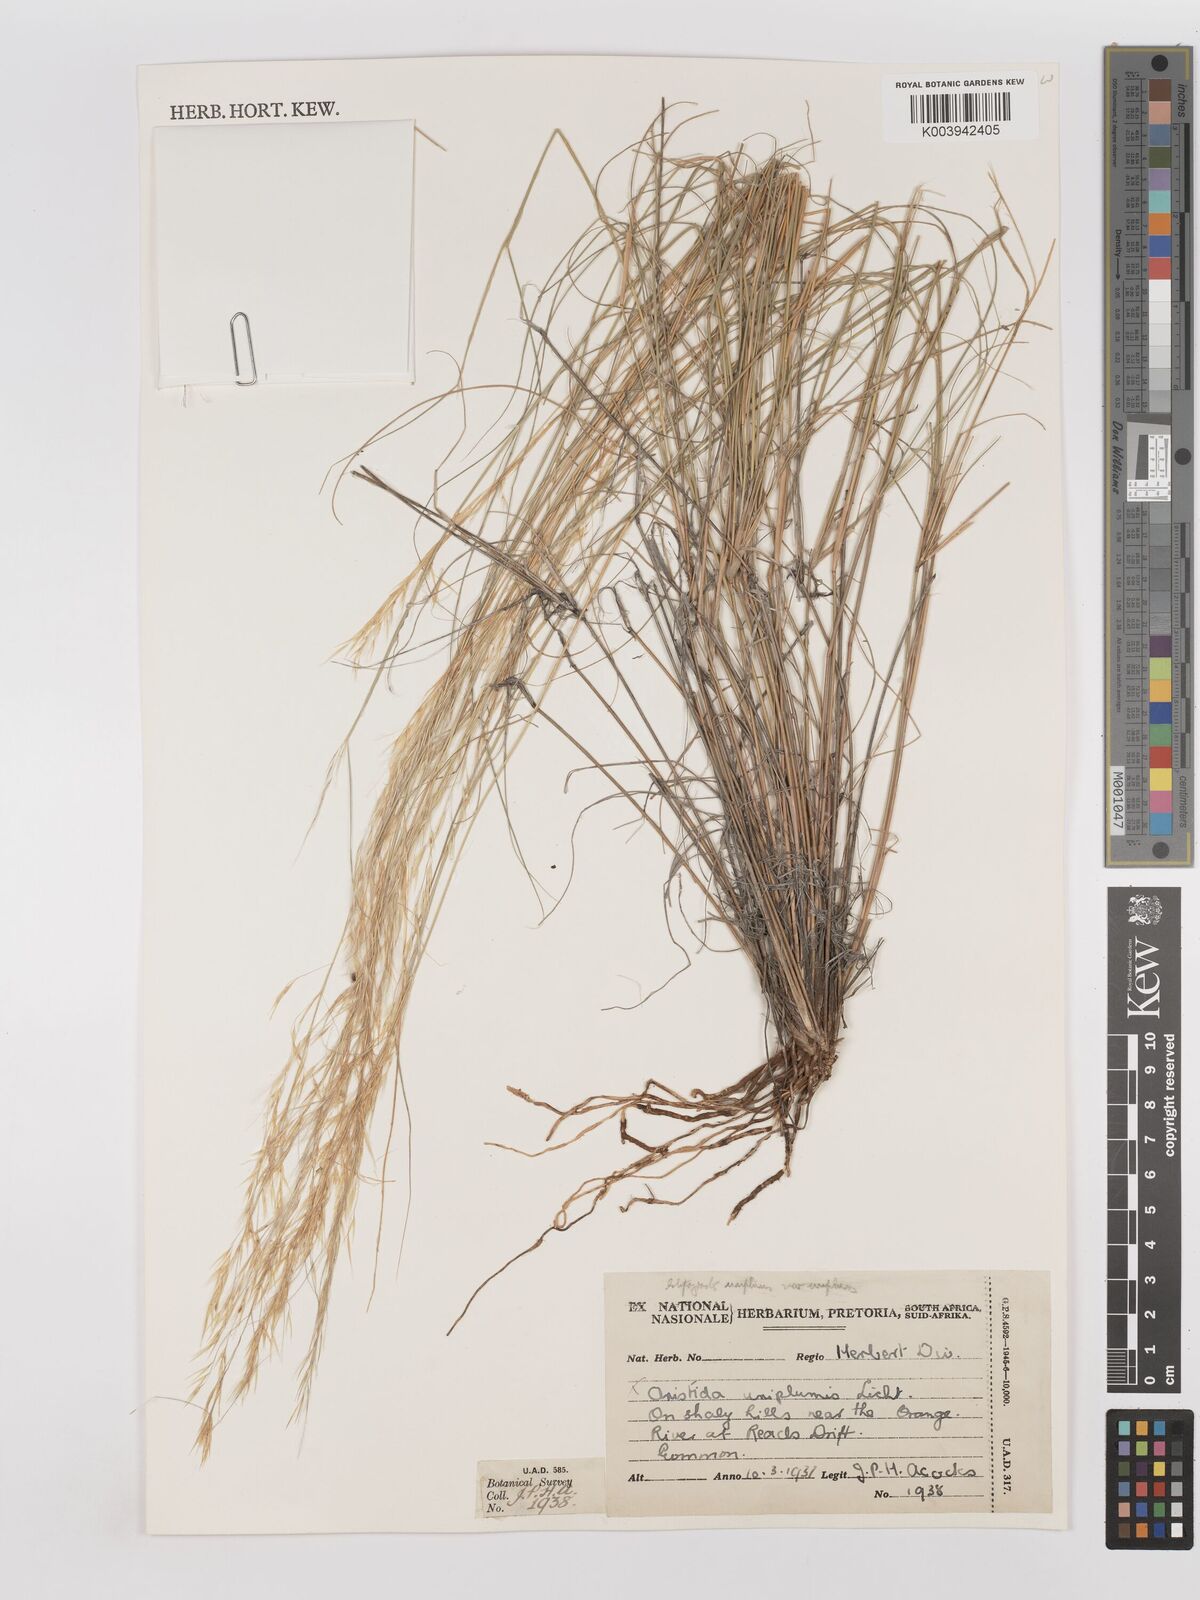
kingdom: Plantae
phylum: Tracheophyta
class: Liliopsida
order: Poales
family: Poaceae
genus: Stipagrostis
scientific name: Stipagrostis uniplumis
